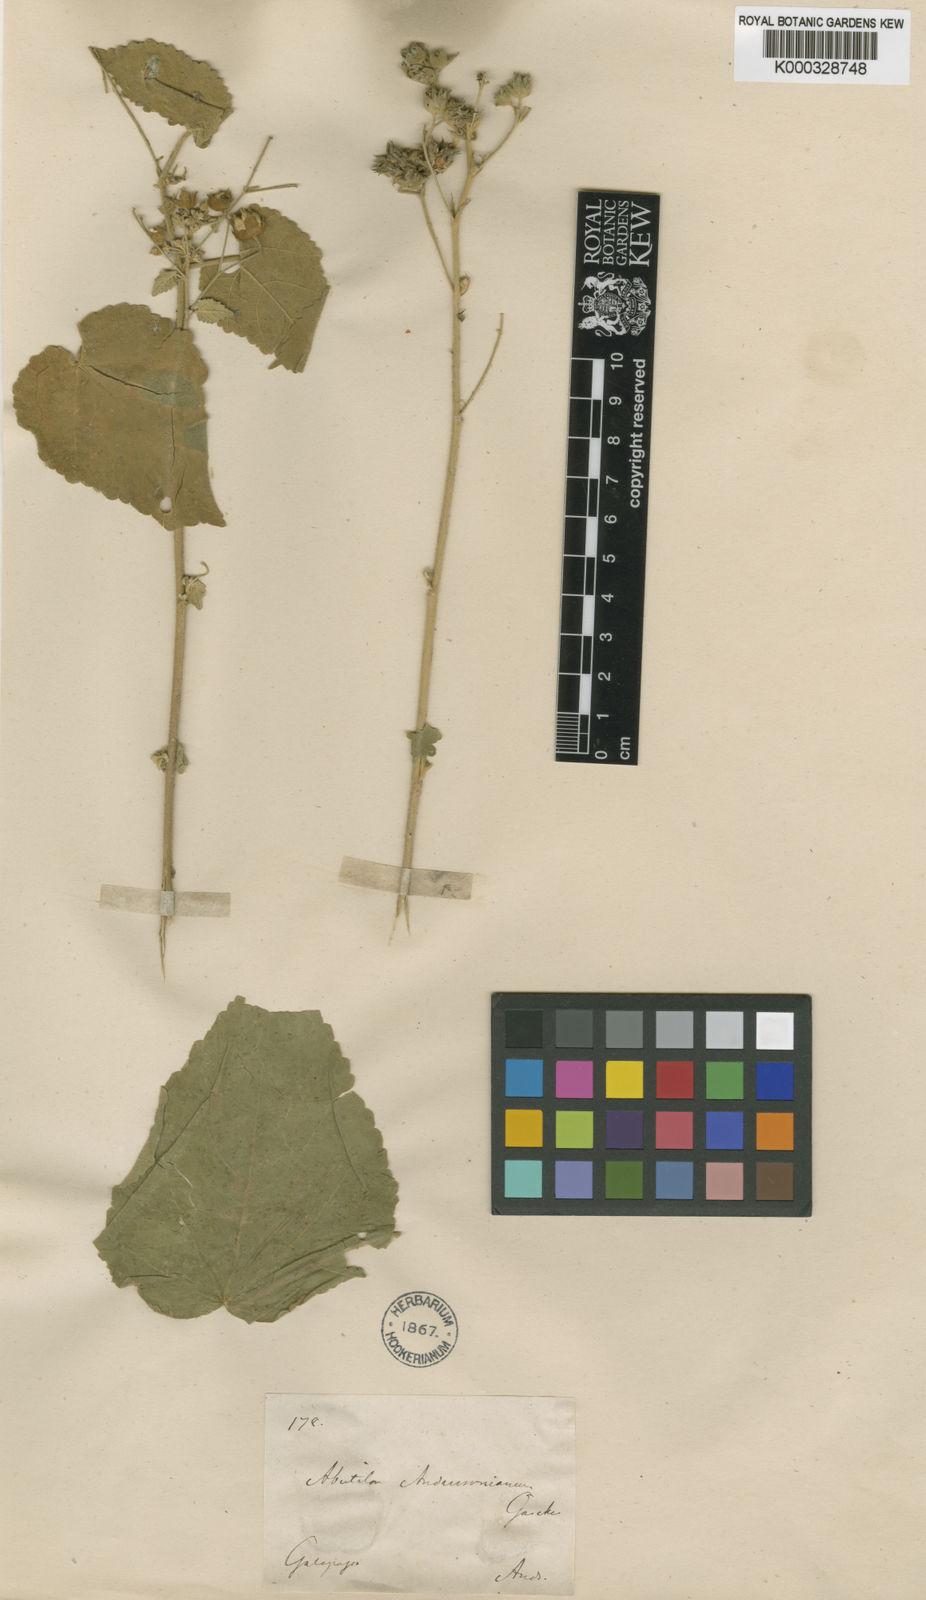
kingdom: Plantae
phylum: Tracheophyta
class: Magnoliopsida
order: Malvales
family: Malvaceae
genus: Abutilon
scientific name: Abutilon
